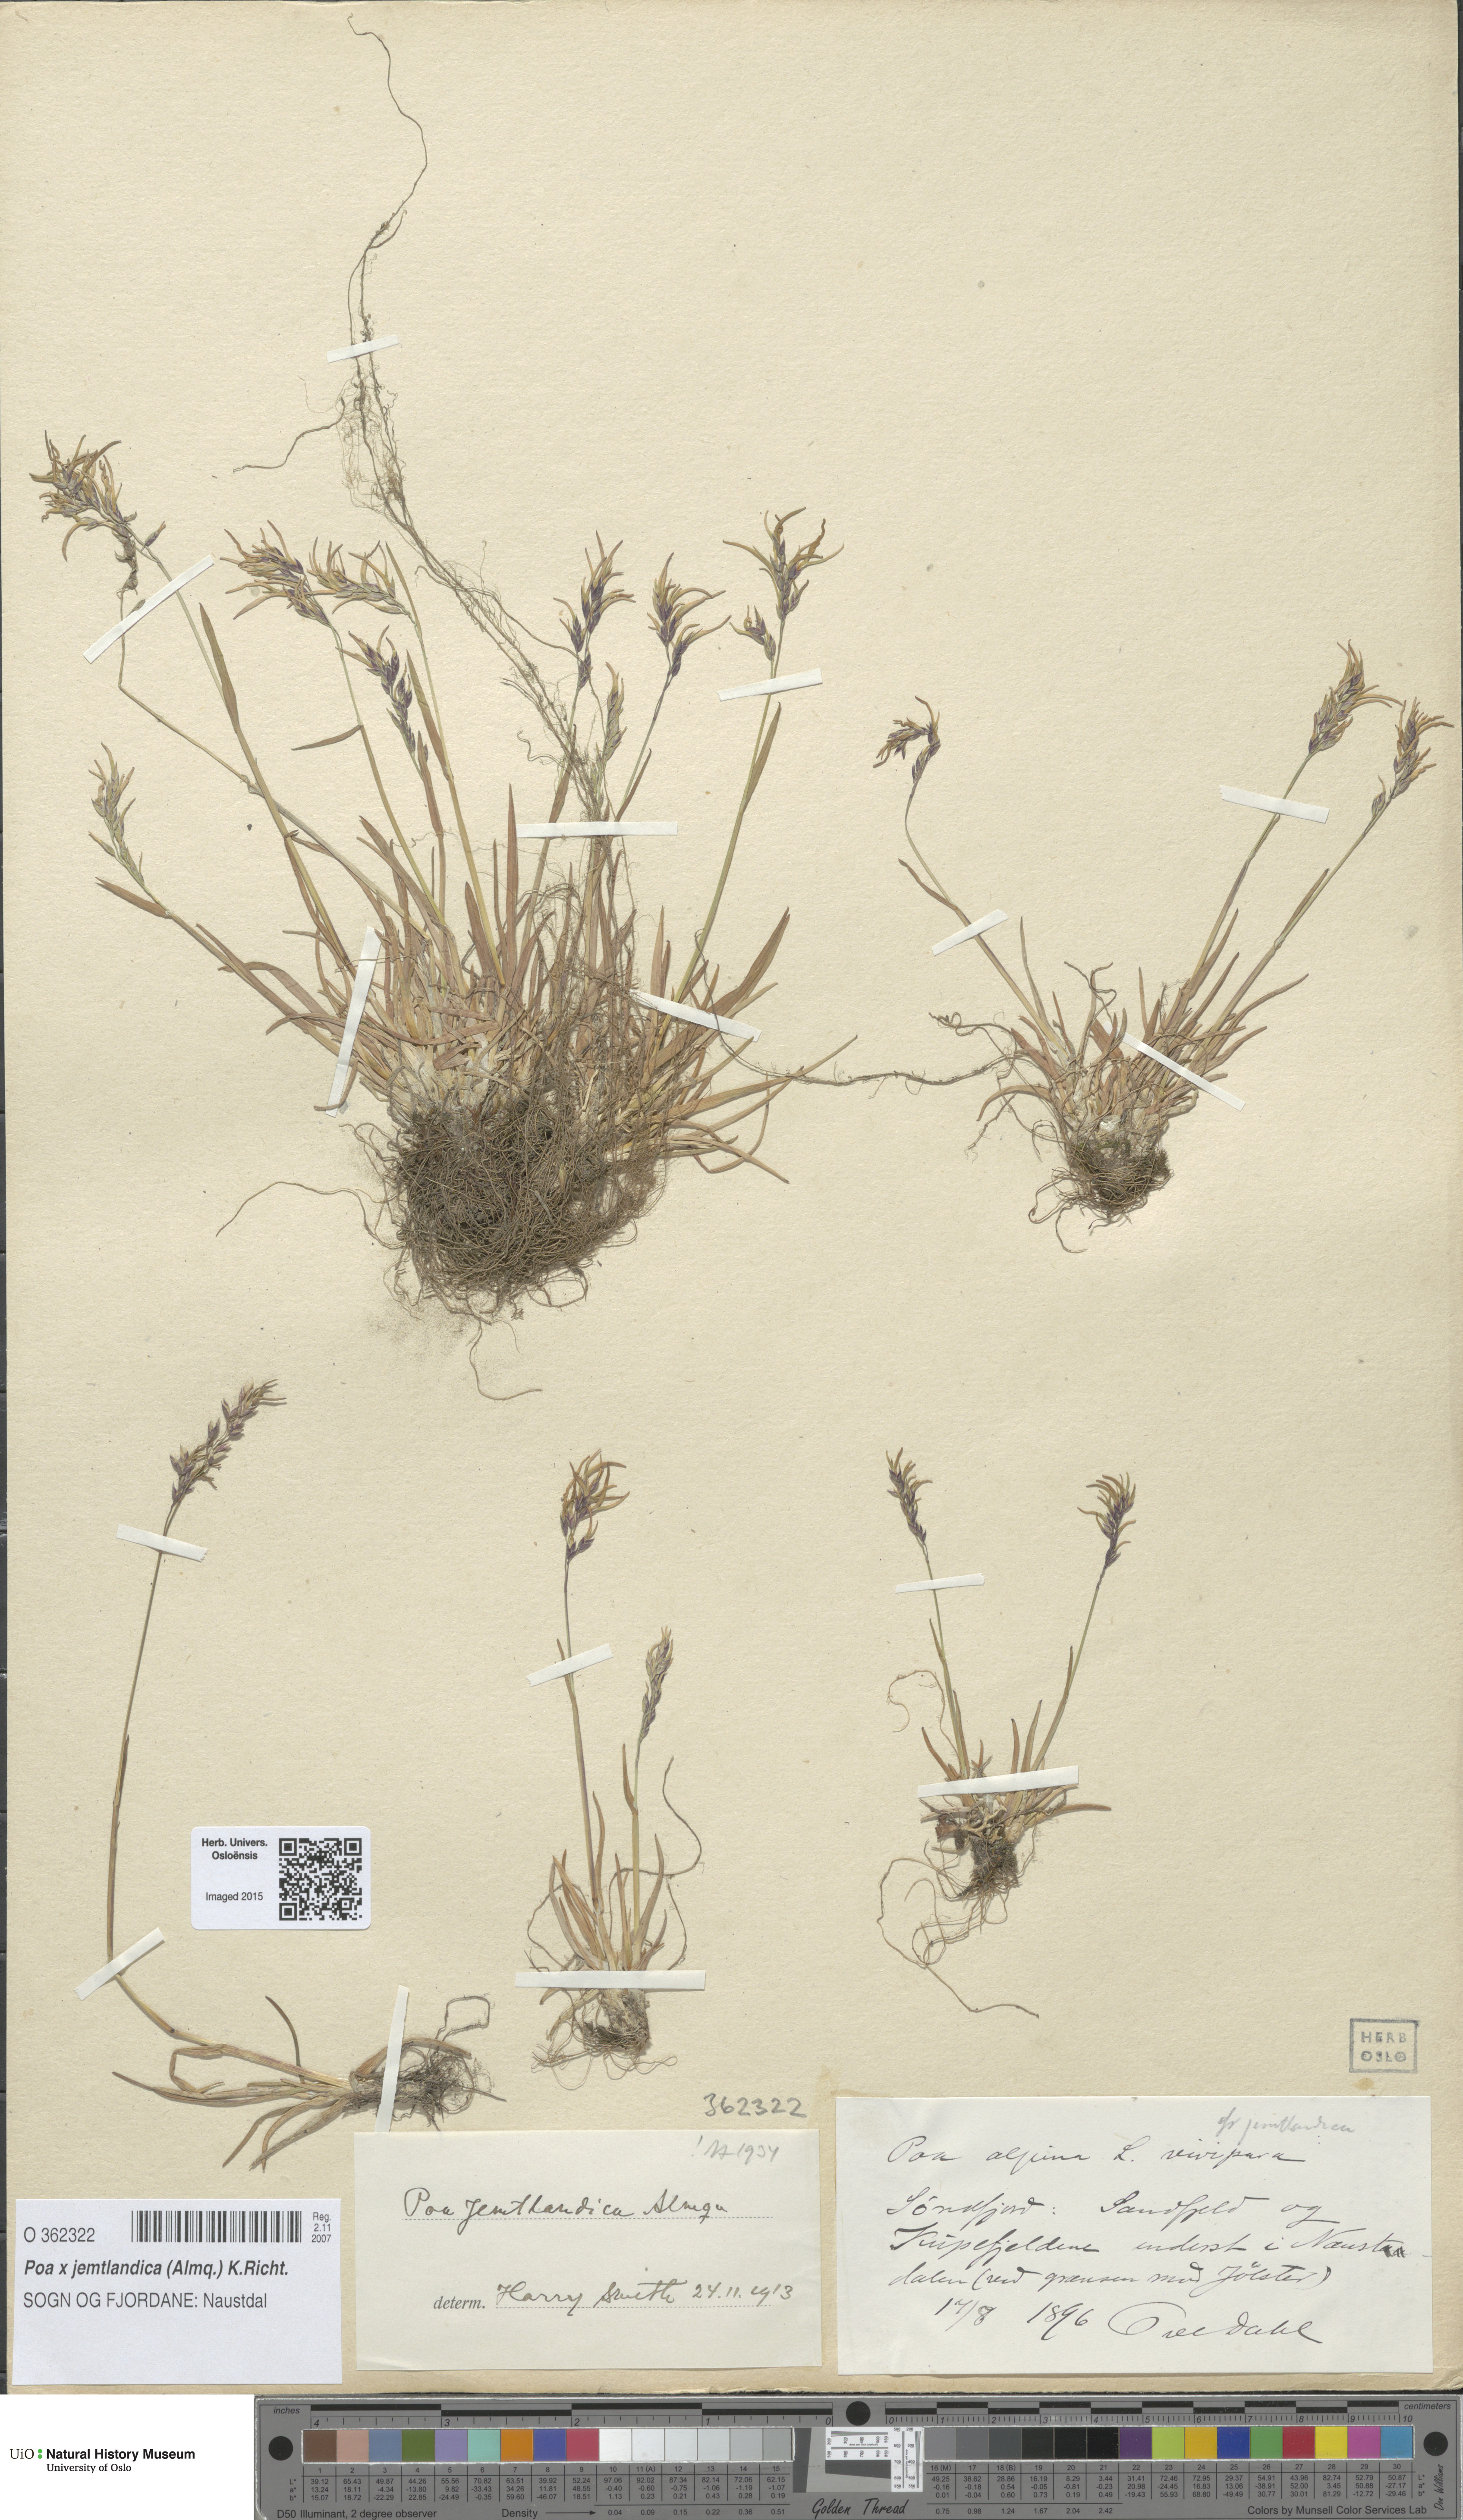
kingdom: Plantae
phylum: Tracheophyta
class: Liliopsida
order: Poales
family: Poaceae
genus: Poa
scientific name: Poa jemtlandica
